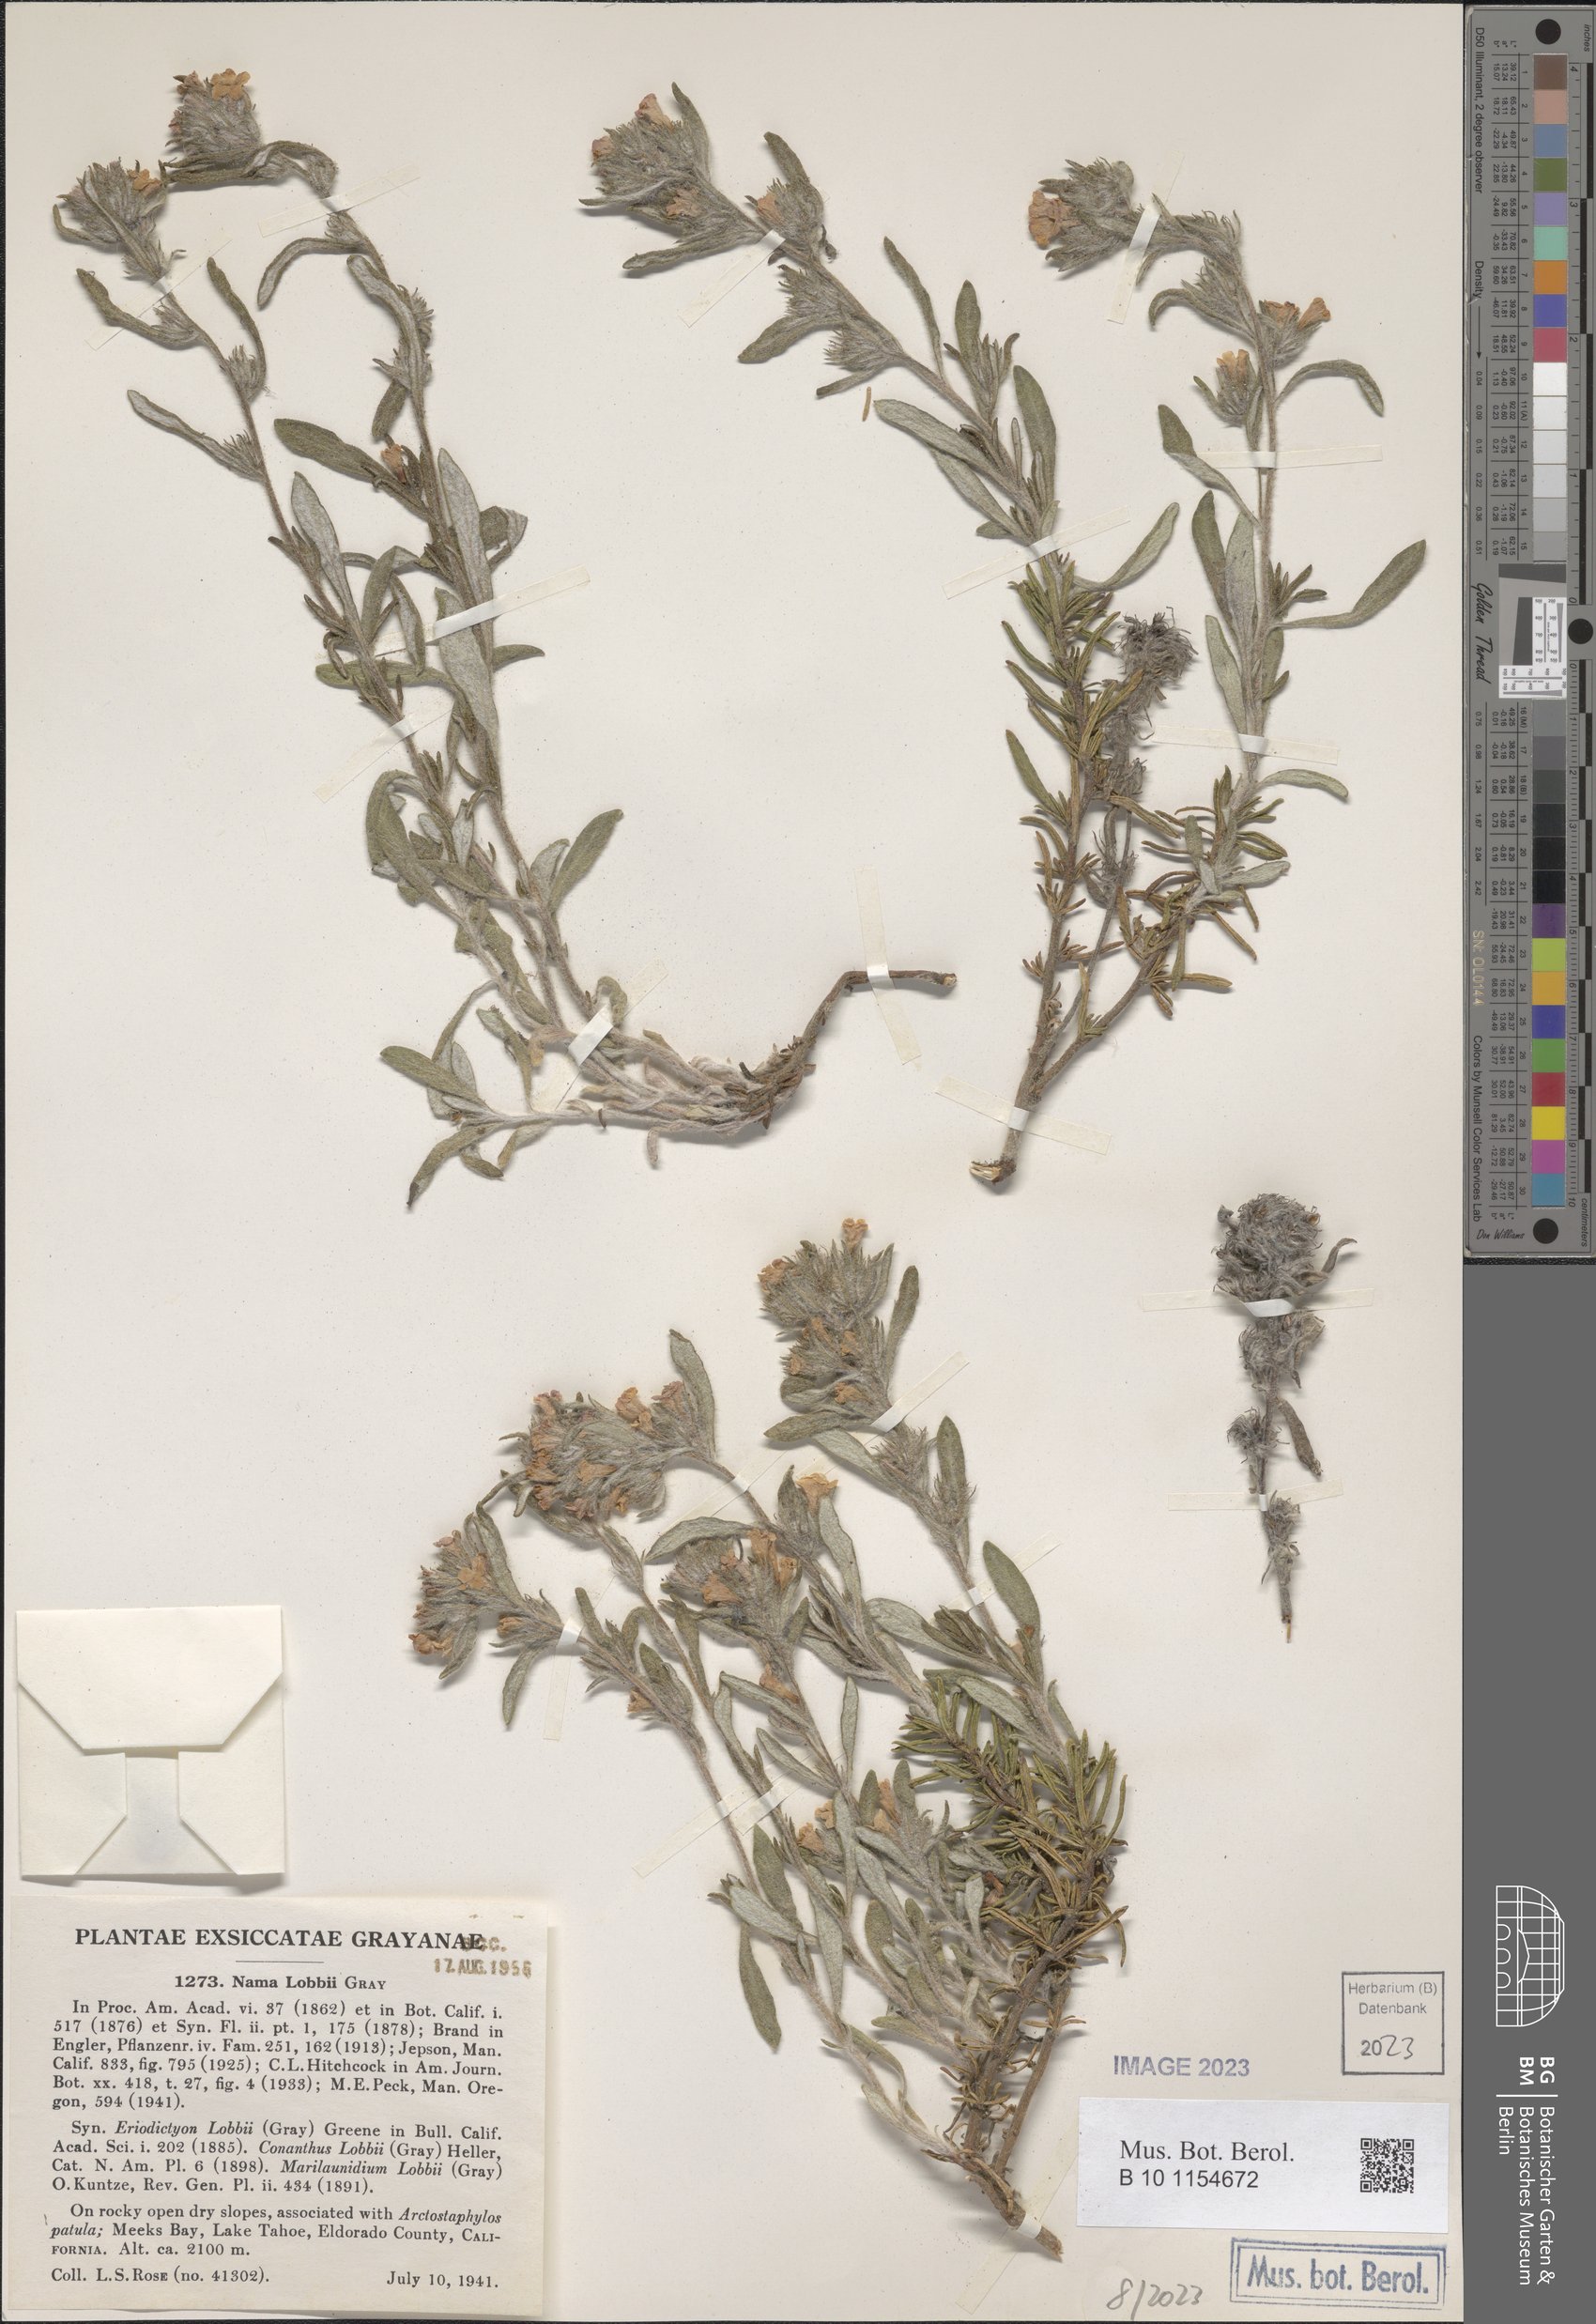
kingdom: Plantae
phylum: Tracheophyta
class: Magnoliopsida
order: Boraginales
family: Namaceae
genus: Nama
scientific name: Nama lobbii
